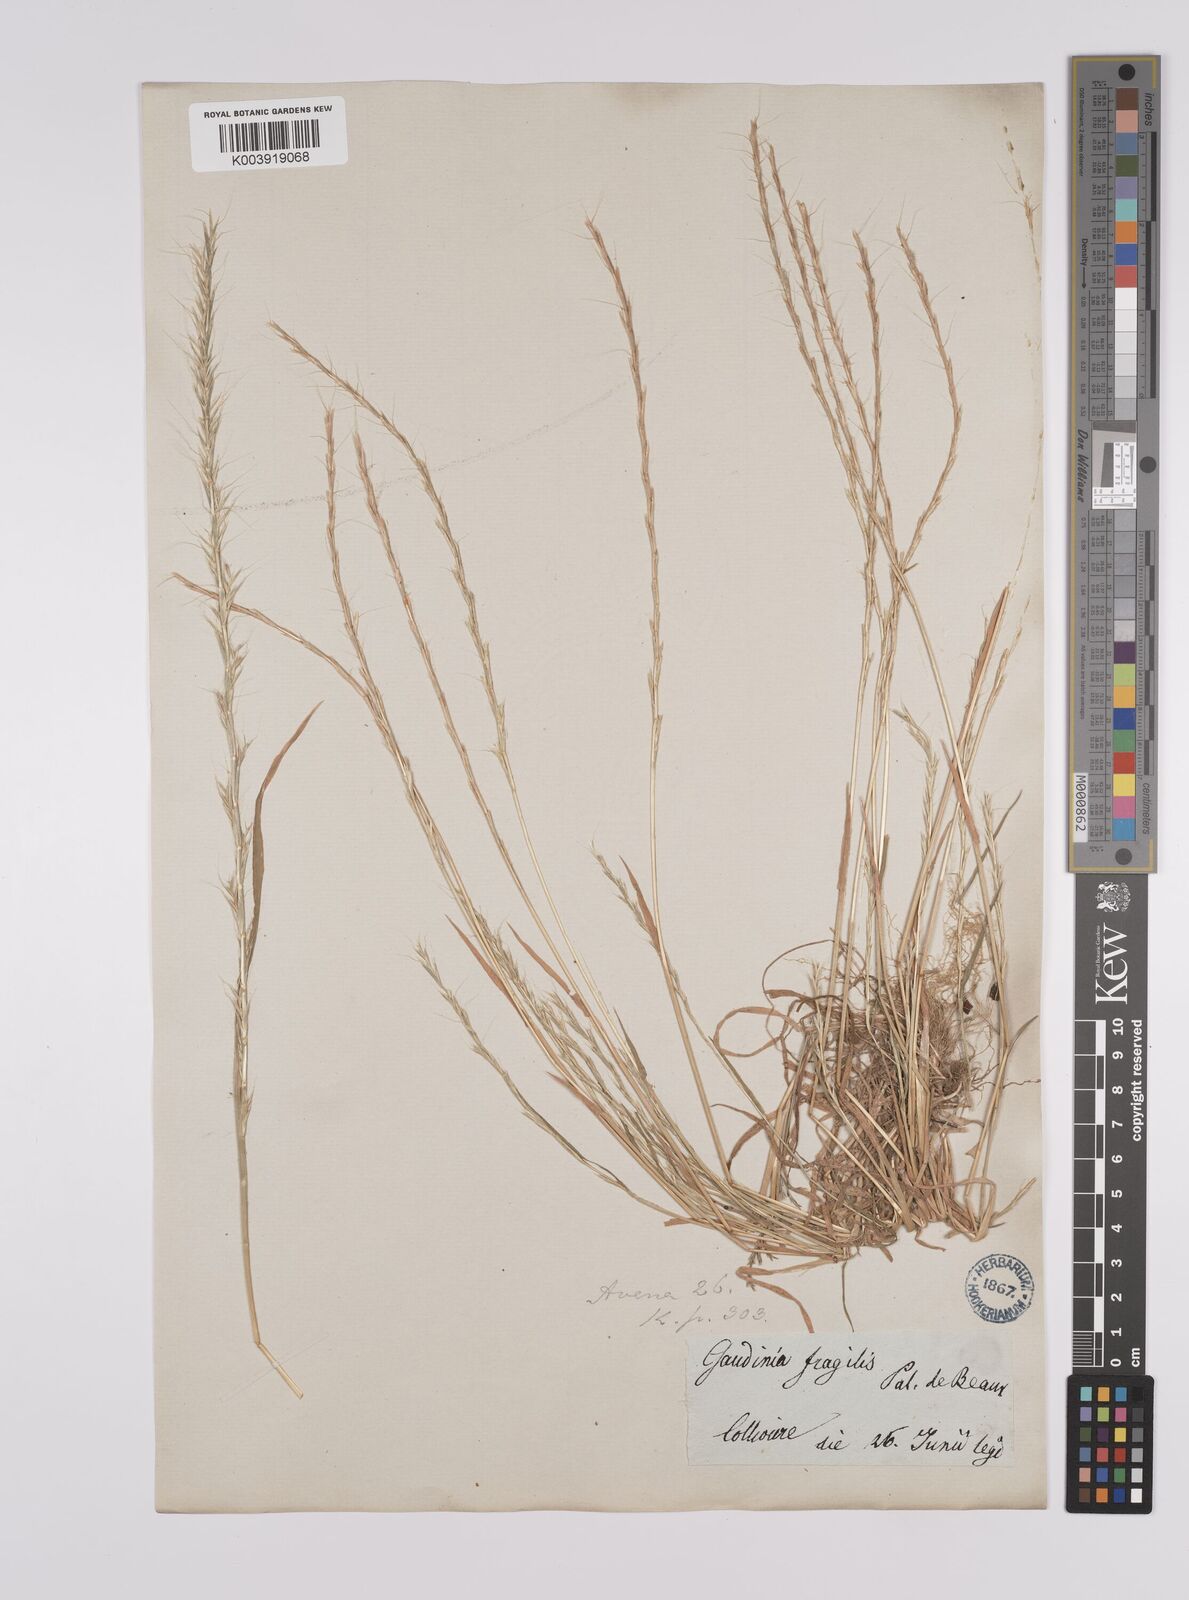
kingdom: Plantae
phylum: Tracheophyta
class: Liliopsida
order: Poales
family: Poaceae
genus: Gaudinia
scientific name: Gaudinia fragilis
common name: French oat-grass
